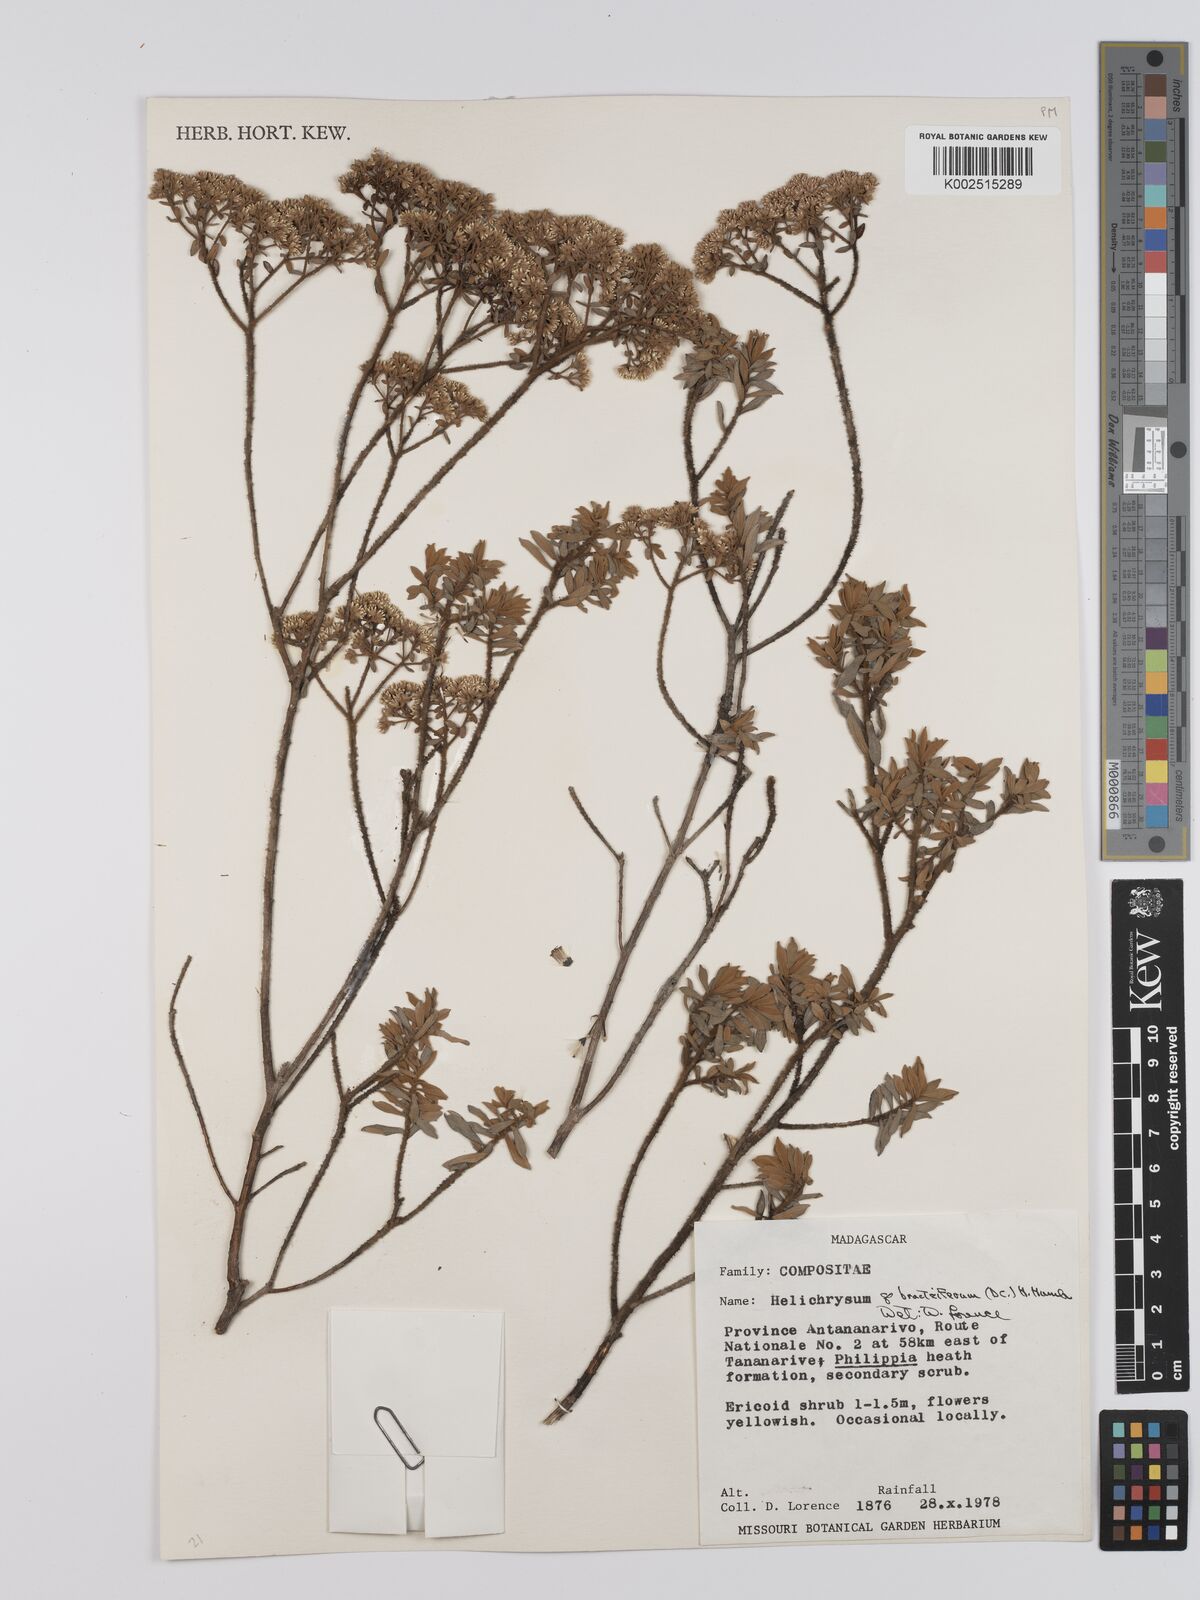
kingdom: Plantae
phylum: Tracheophyta
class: Magnoliopsida
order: Asterales
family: Asteraceae
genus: Helichrysum
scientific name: Helichrysum bracteiferum
